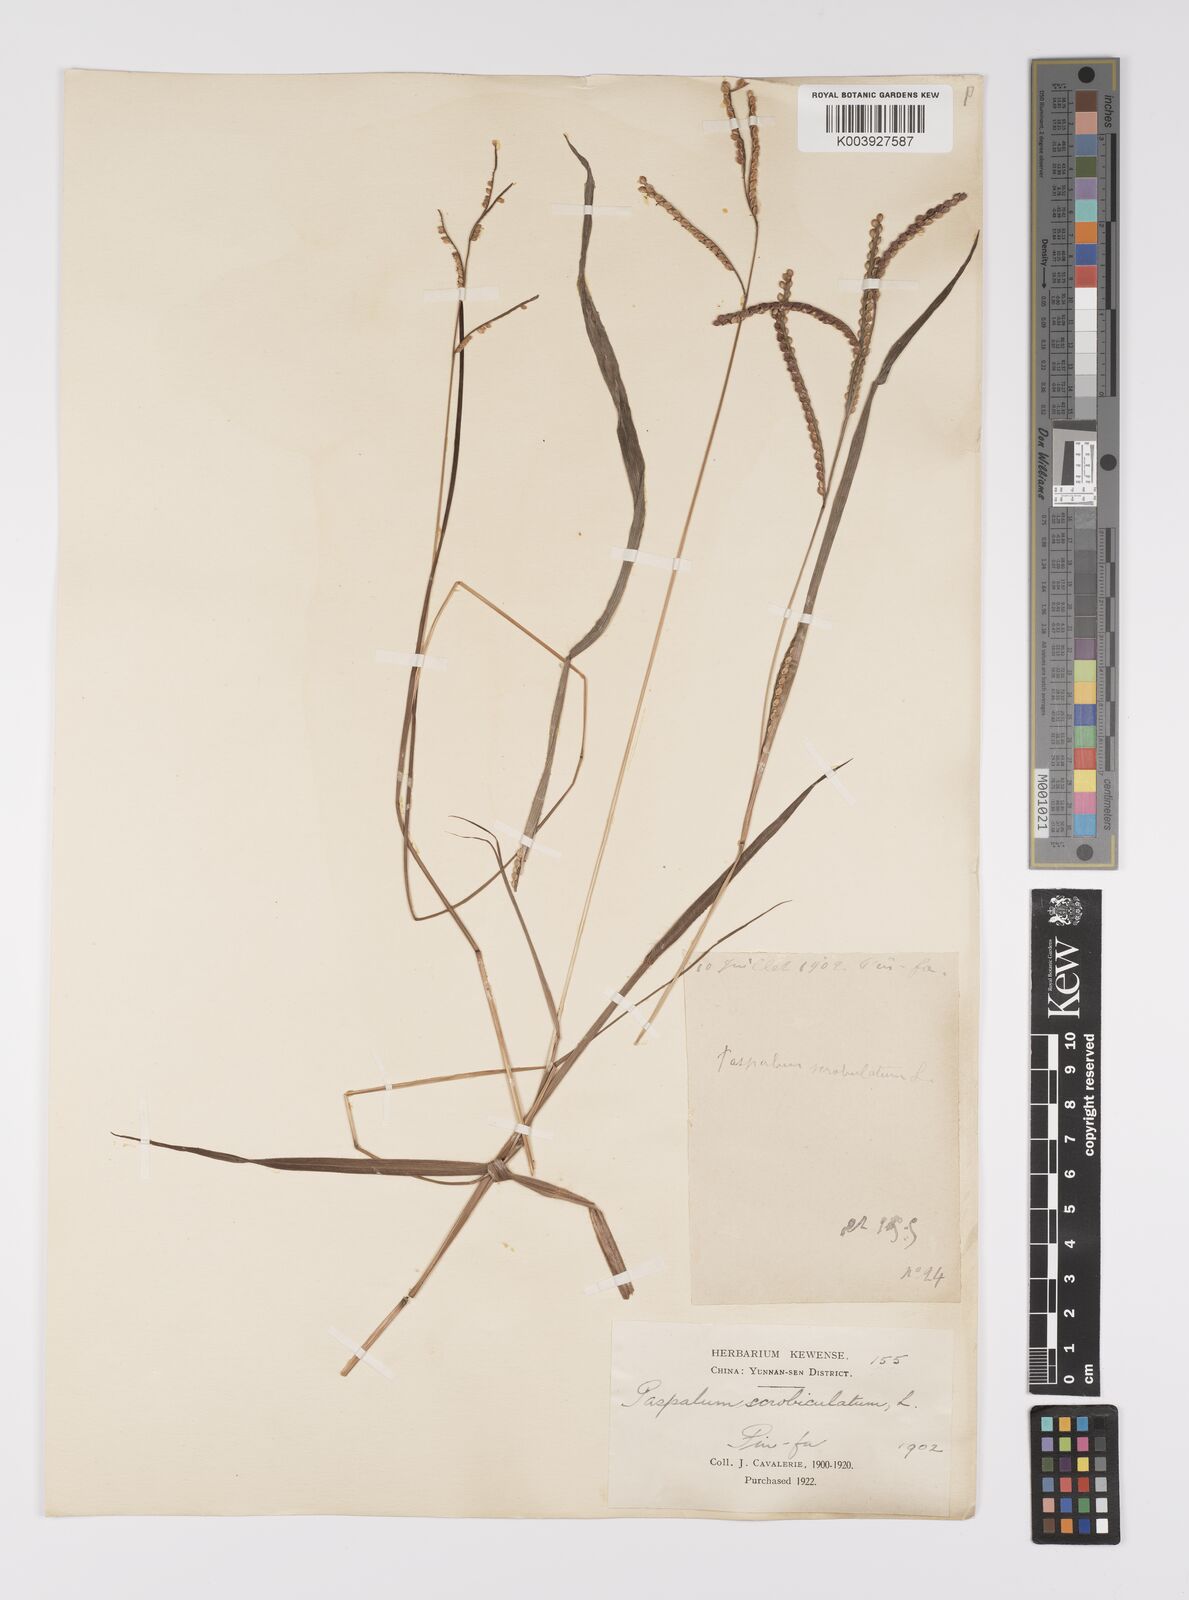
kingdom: Plantae
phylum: Tracheophyta
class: Liliopsida
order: Poales
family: Poaceae
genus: Paspalum
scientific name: Paspalum thunbergii
